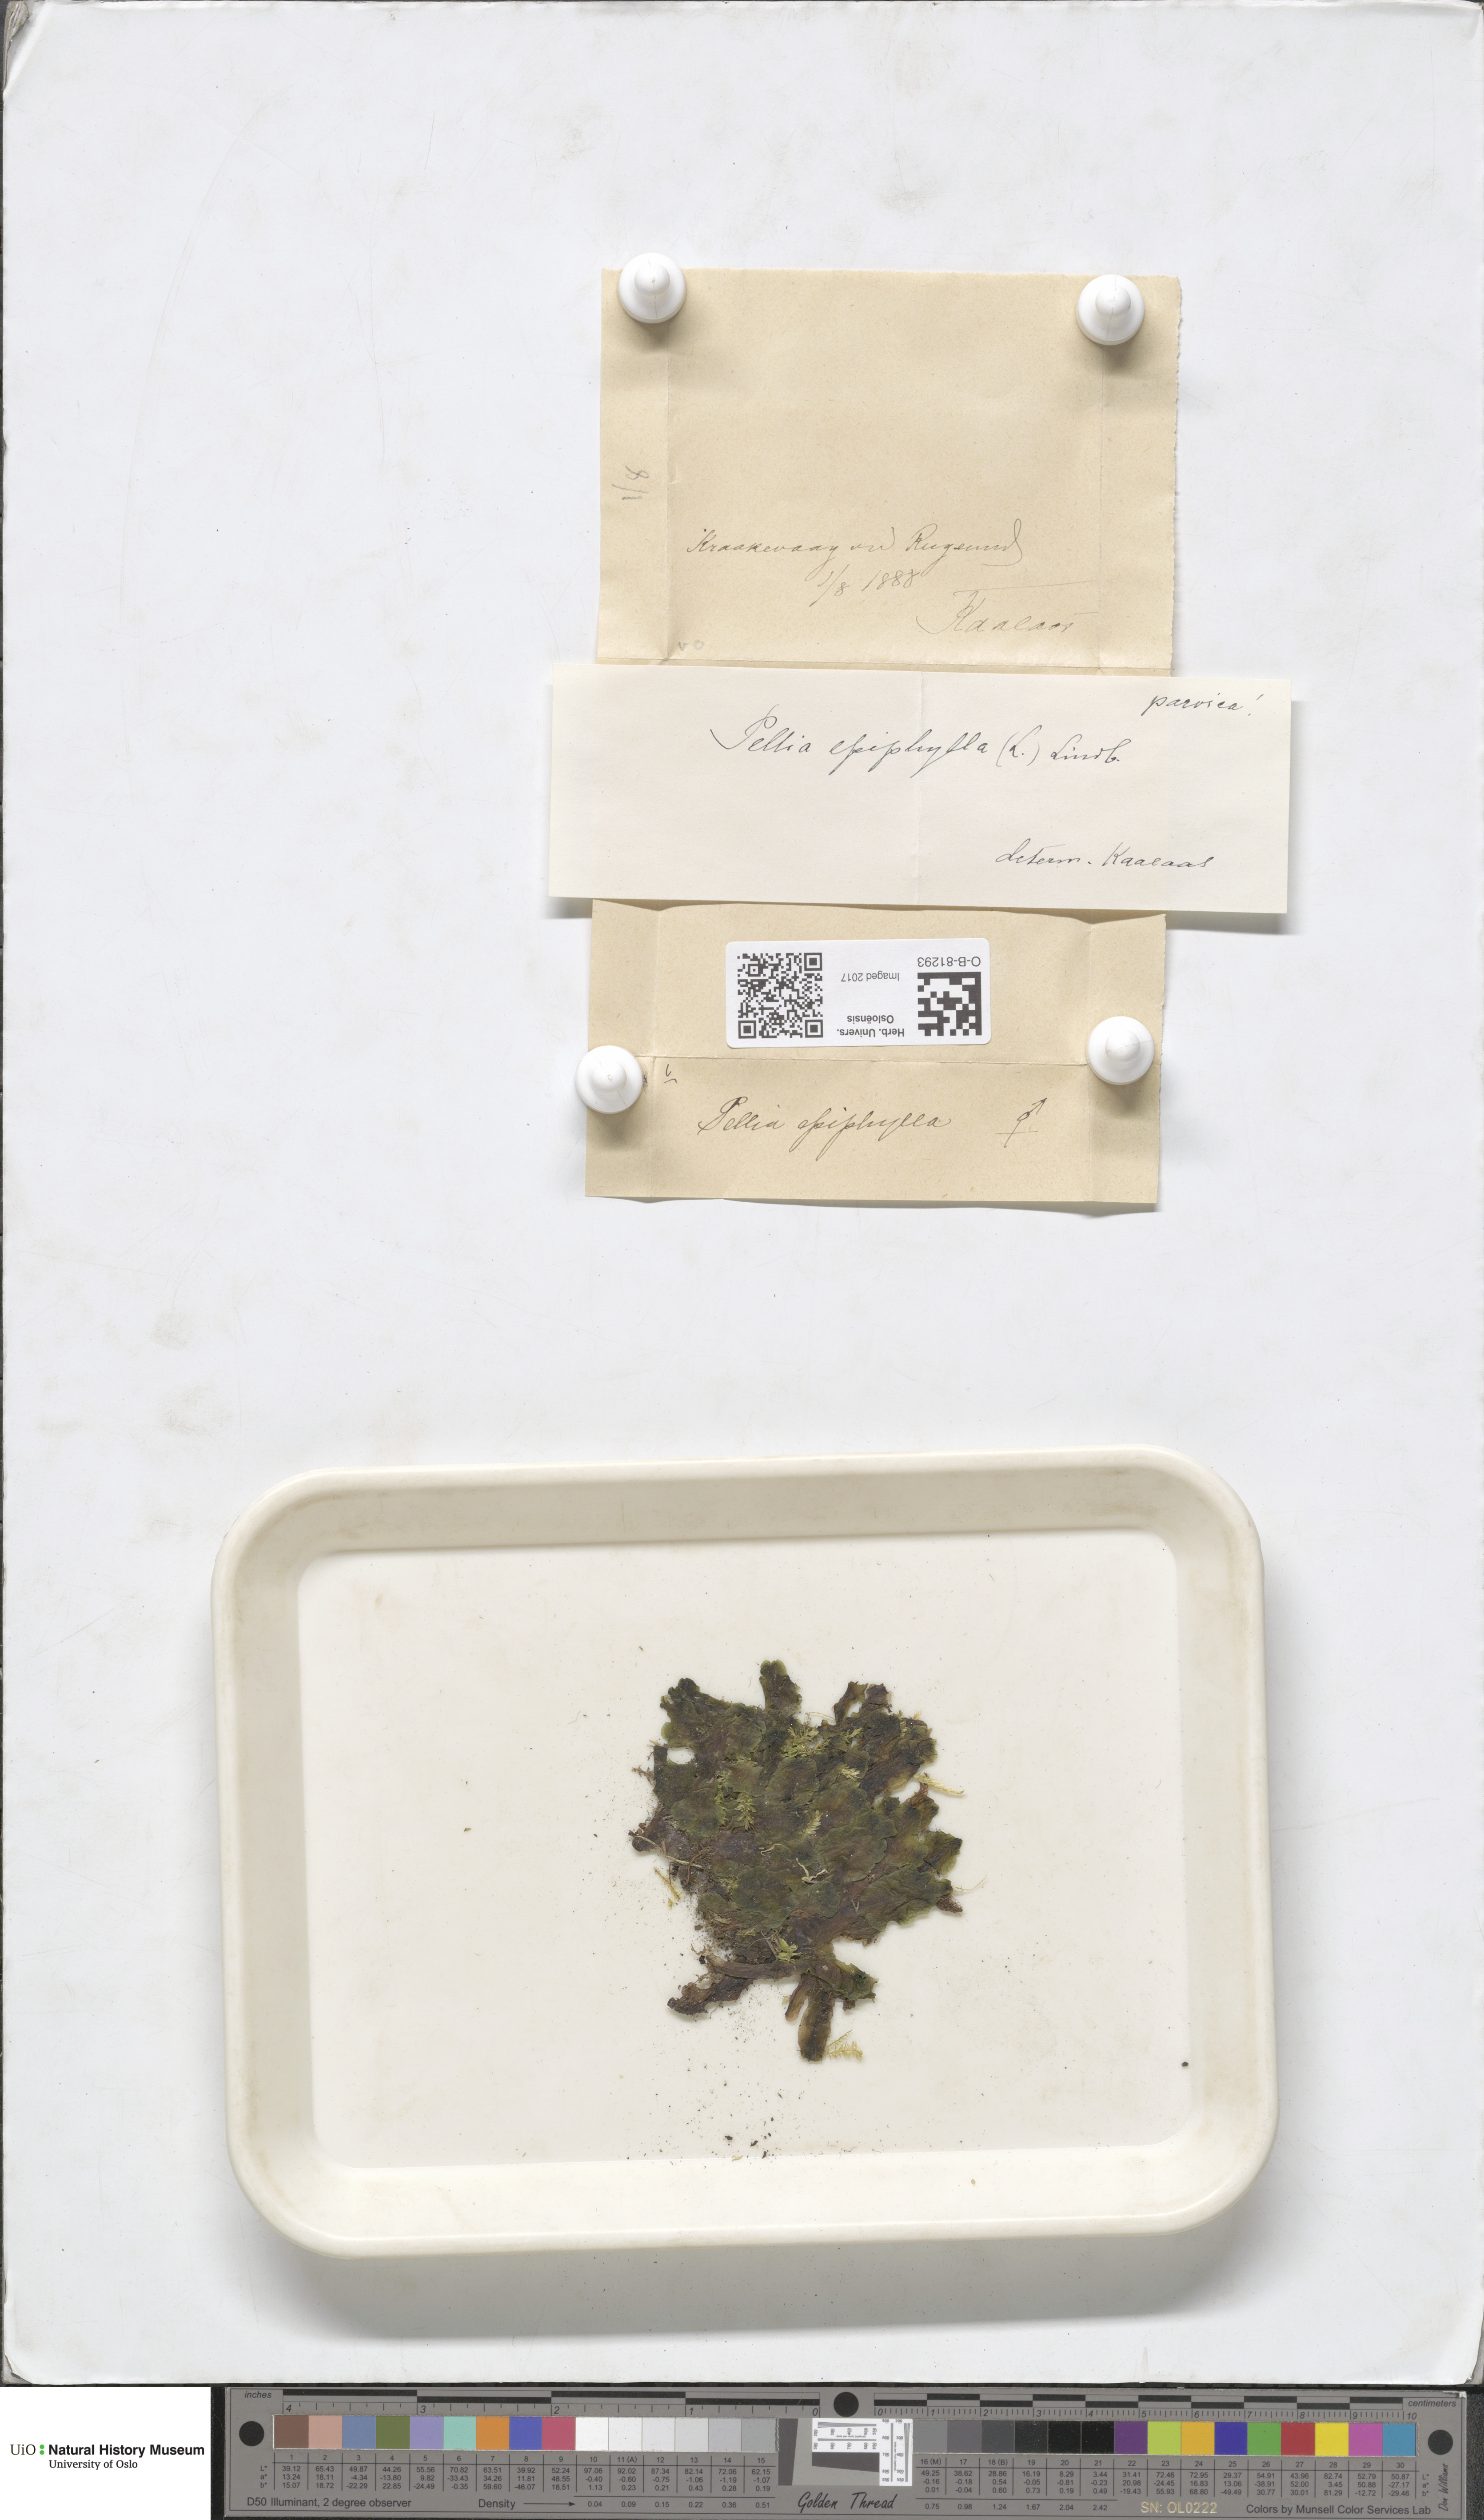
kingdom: Plantae
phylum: Marchantiophyta
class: Jungermanniopsida
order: Pelliales
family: Pelliaceae
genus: Pellia
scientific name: Pellia epiphylla
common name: Common pellia
